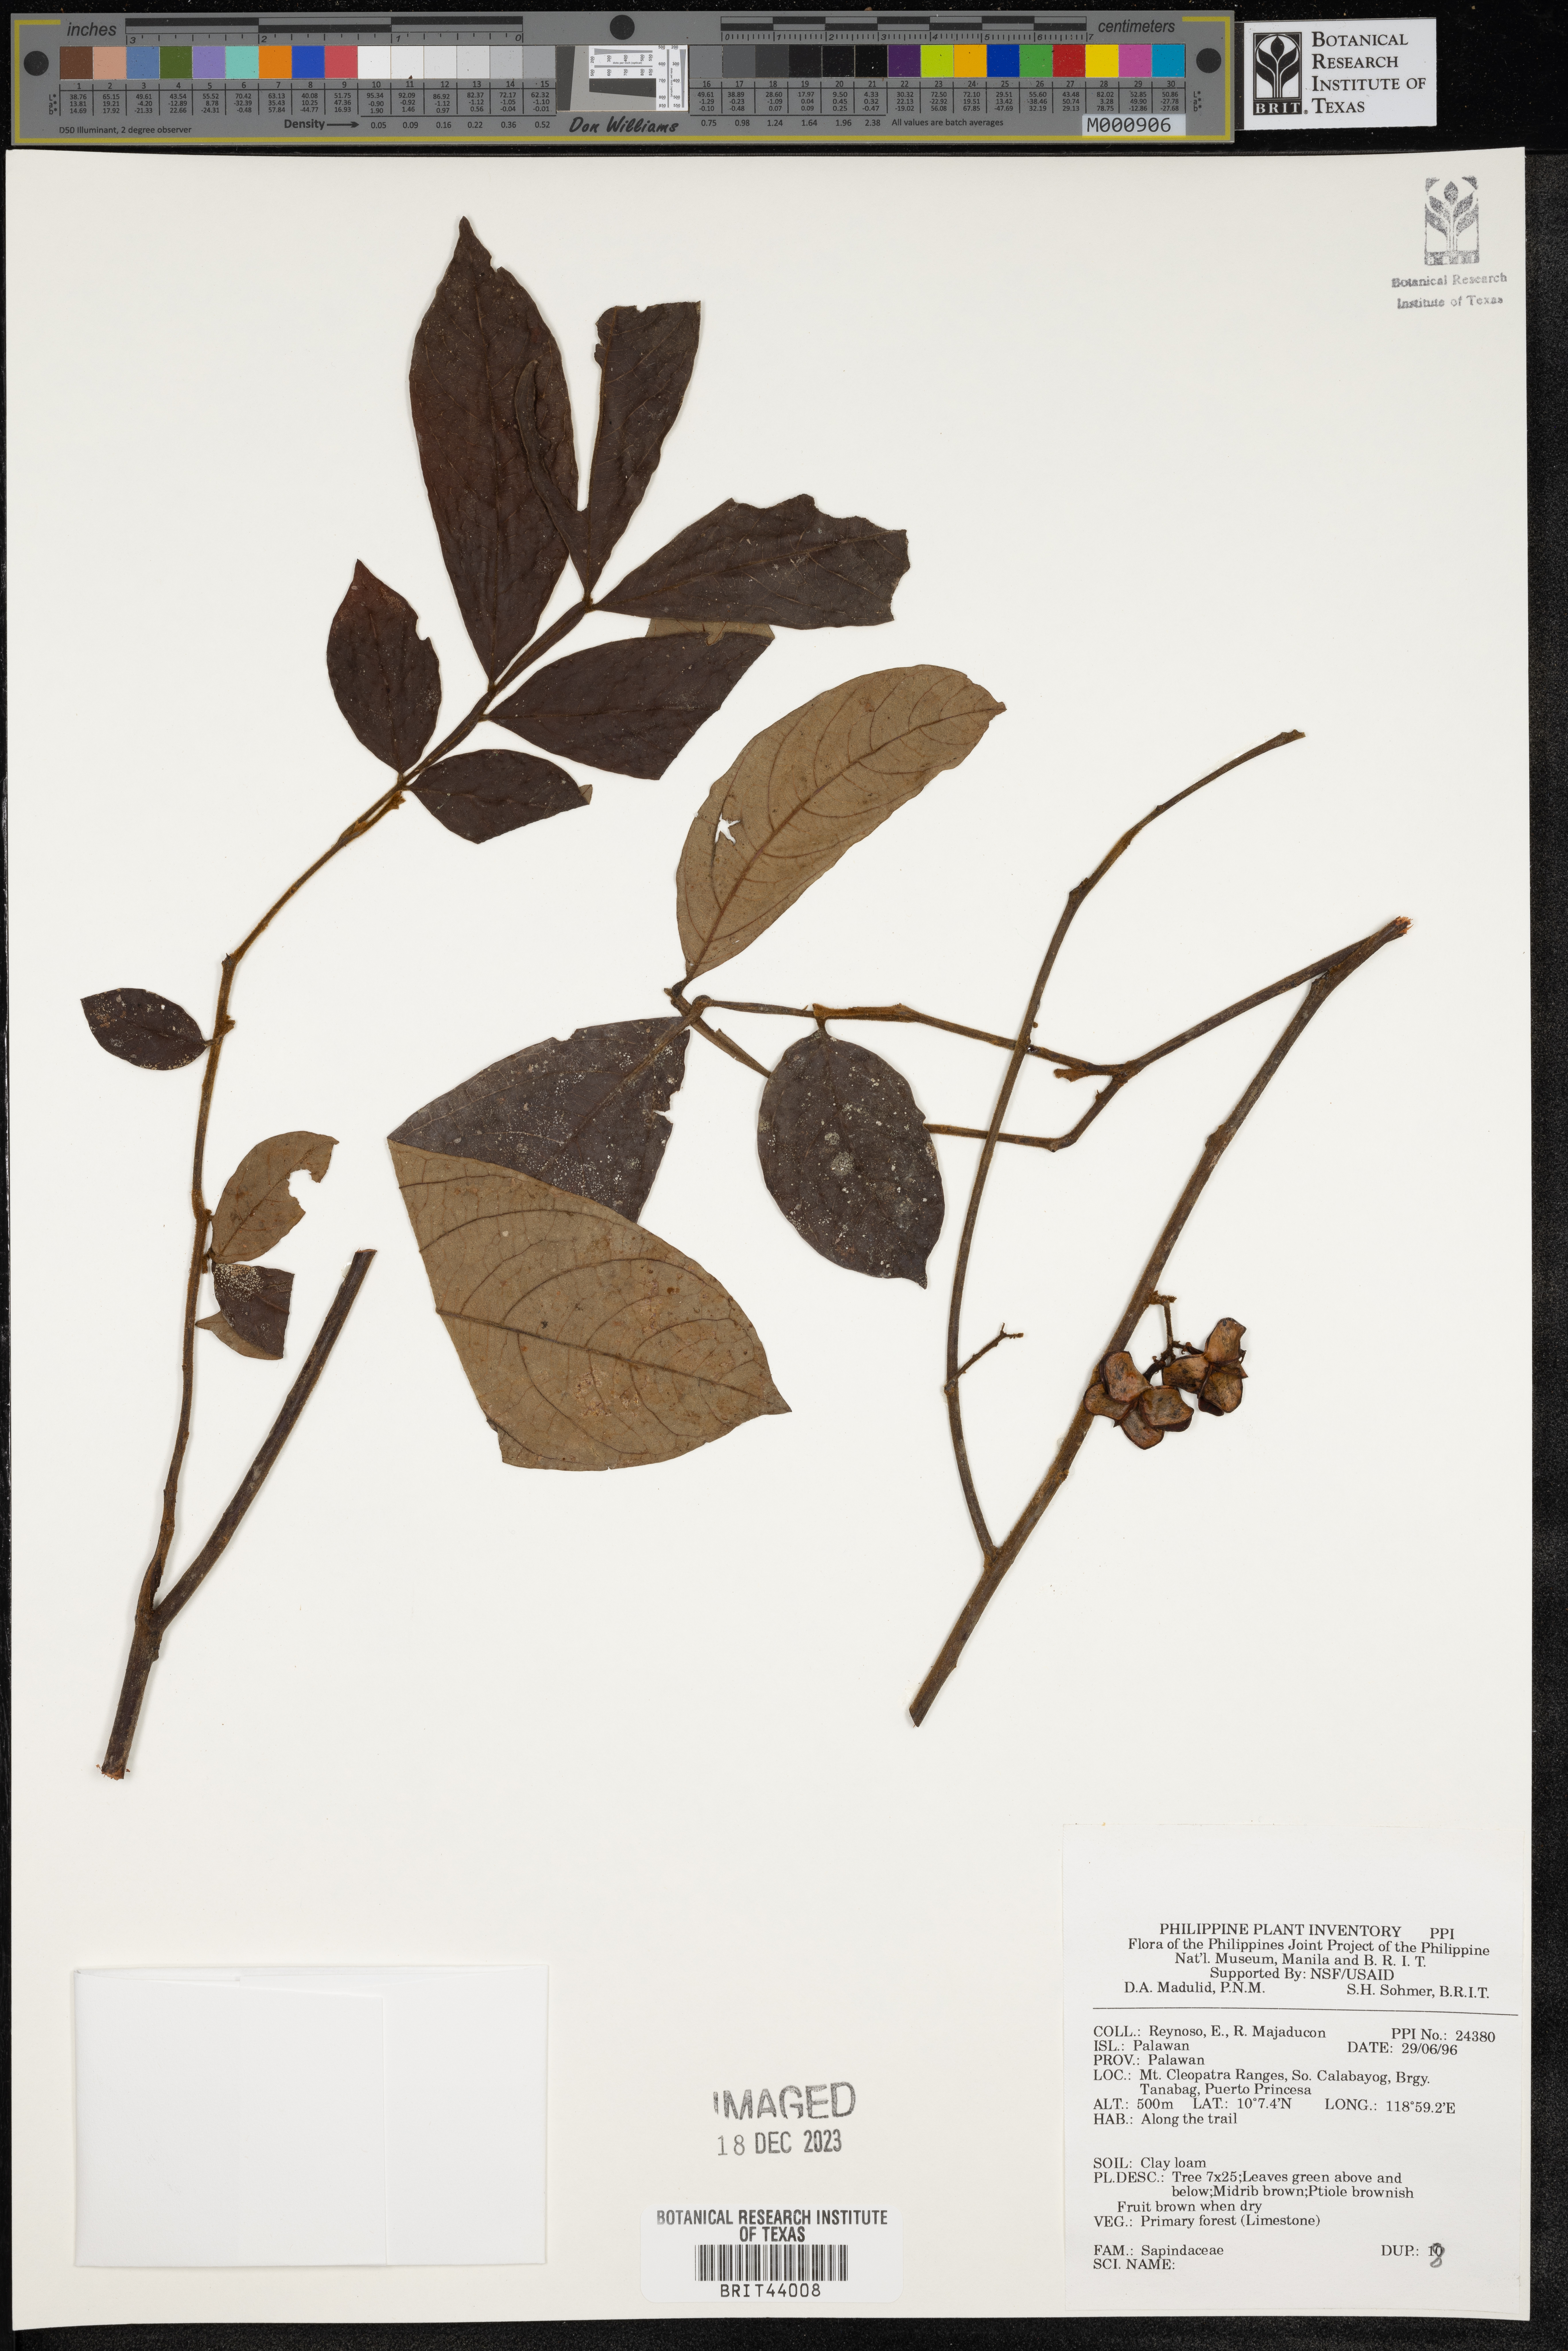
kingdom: Plantae
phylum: Tracheophyta
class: Magnoliopsida
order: Sapindales
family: Sapindaceae
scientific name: Sapindaceae
